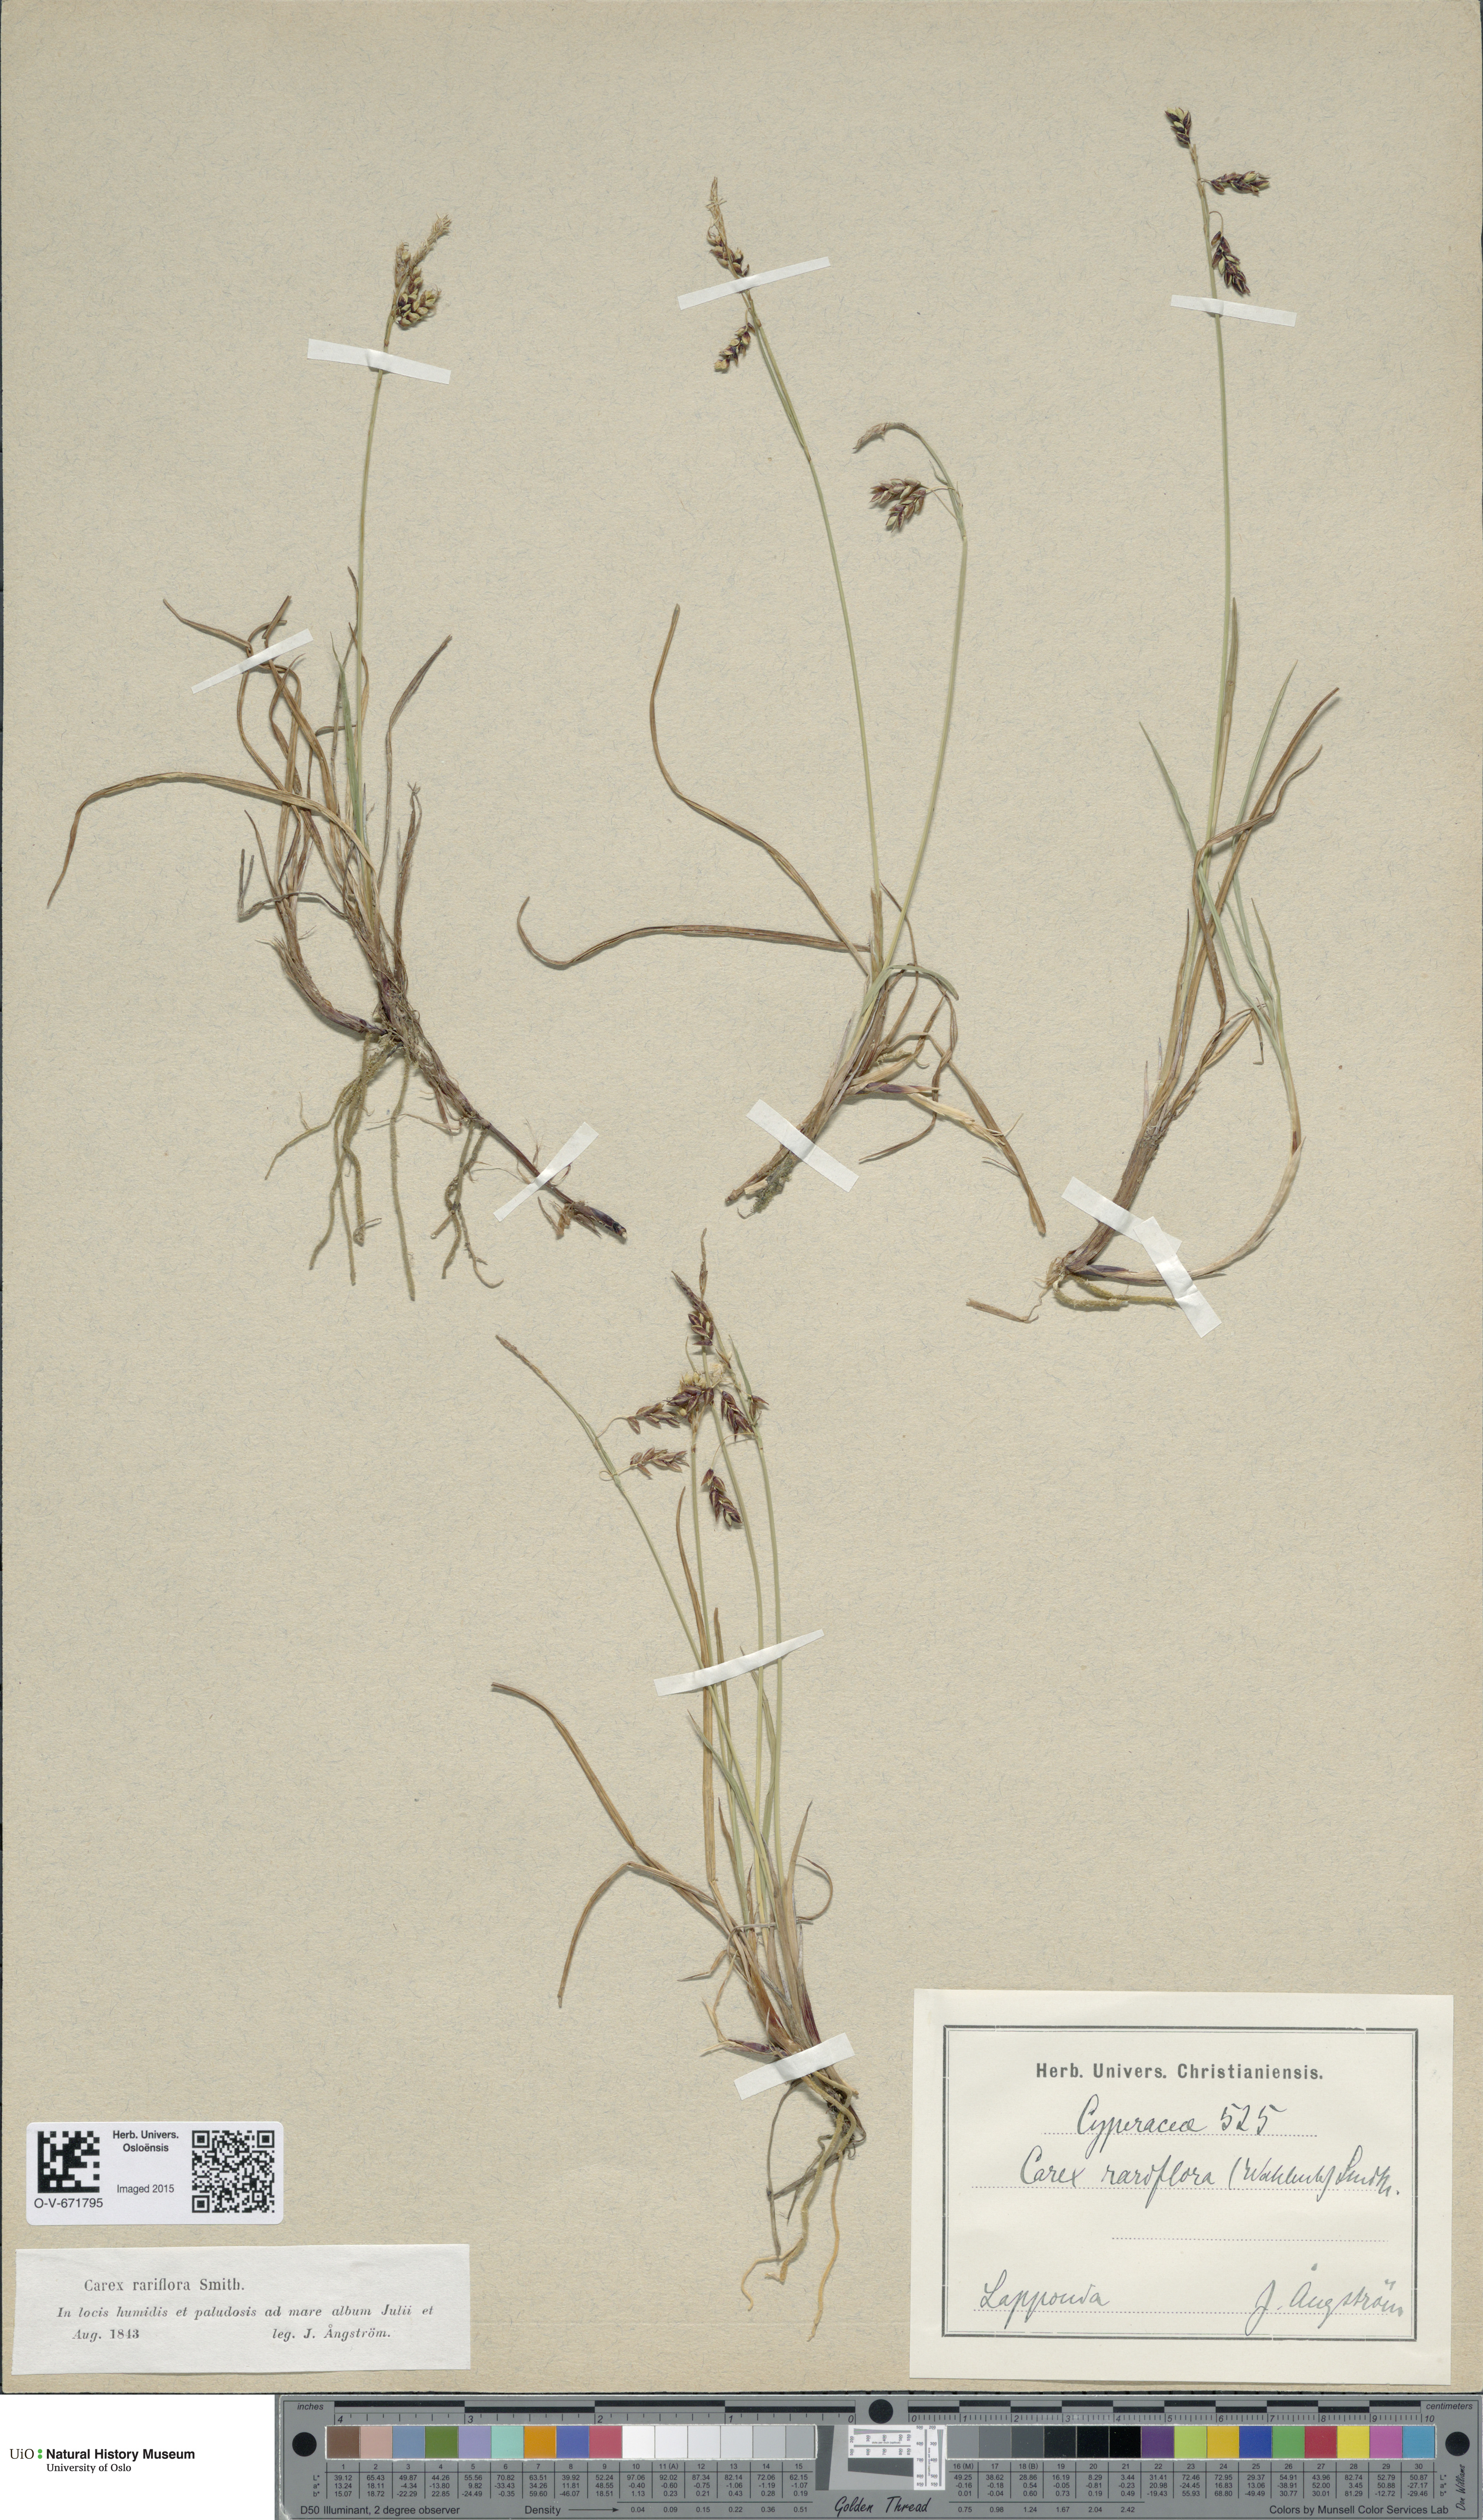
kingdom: Plantae
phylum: Tracheophyta
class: Liliopsida
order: Poales
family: Cyperaceae
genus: Carex
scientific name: Carex rariflora
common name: Loose-flowered alpine sedge
